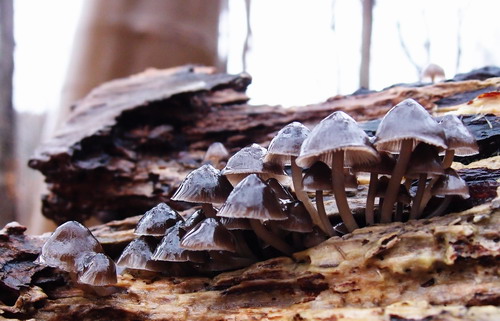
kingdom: Fungi
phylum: Basidiomycota
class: Agaricomycetes
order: Agaricales
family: Mycenaceae
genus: Mycena
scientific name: Mycena tintinnabulum
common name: vinter-huesvamp
